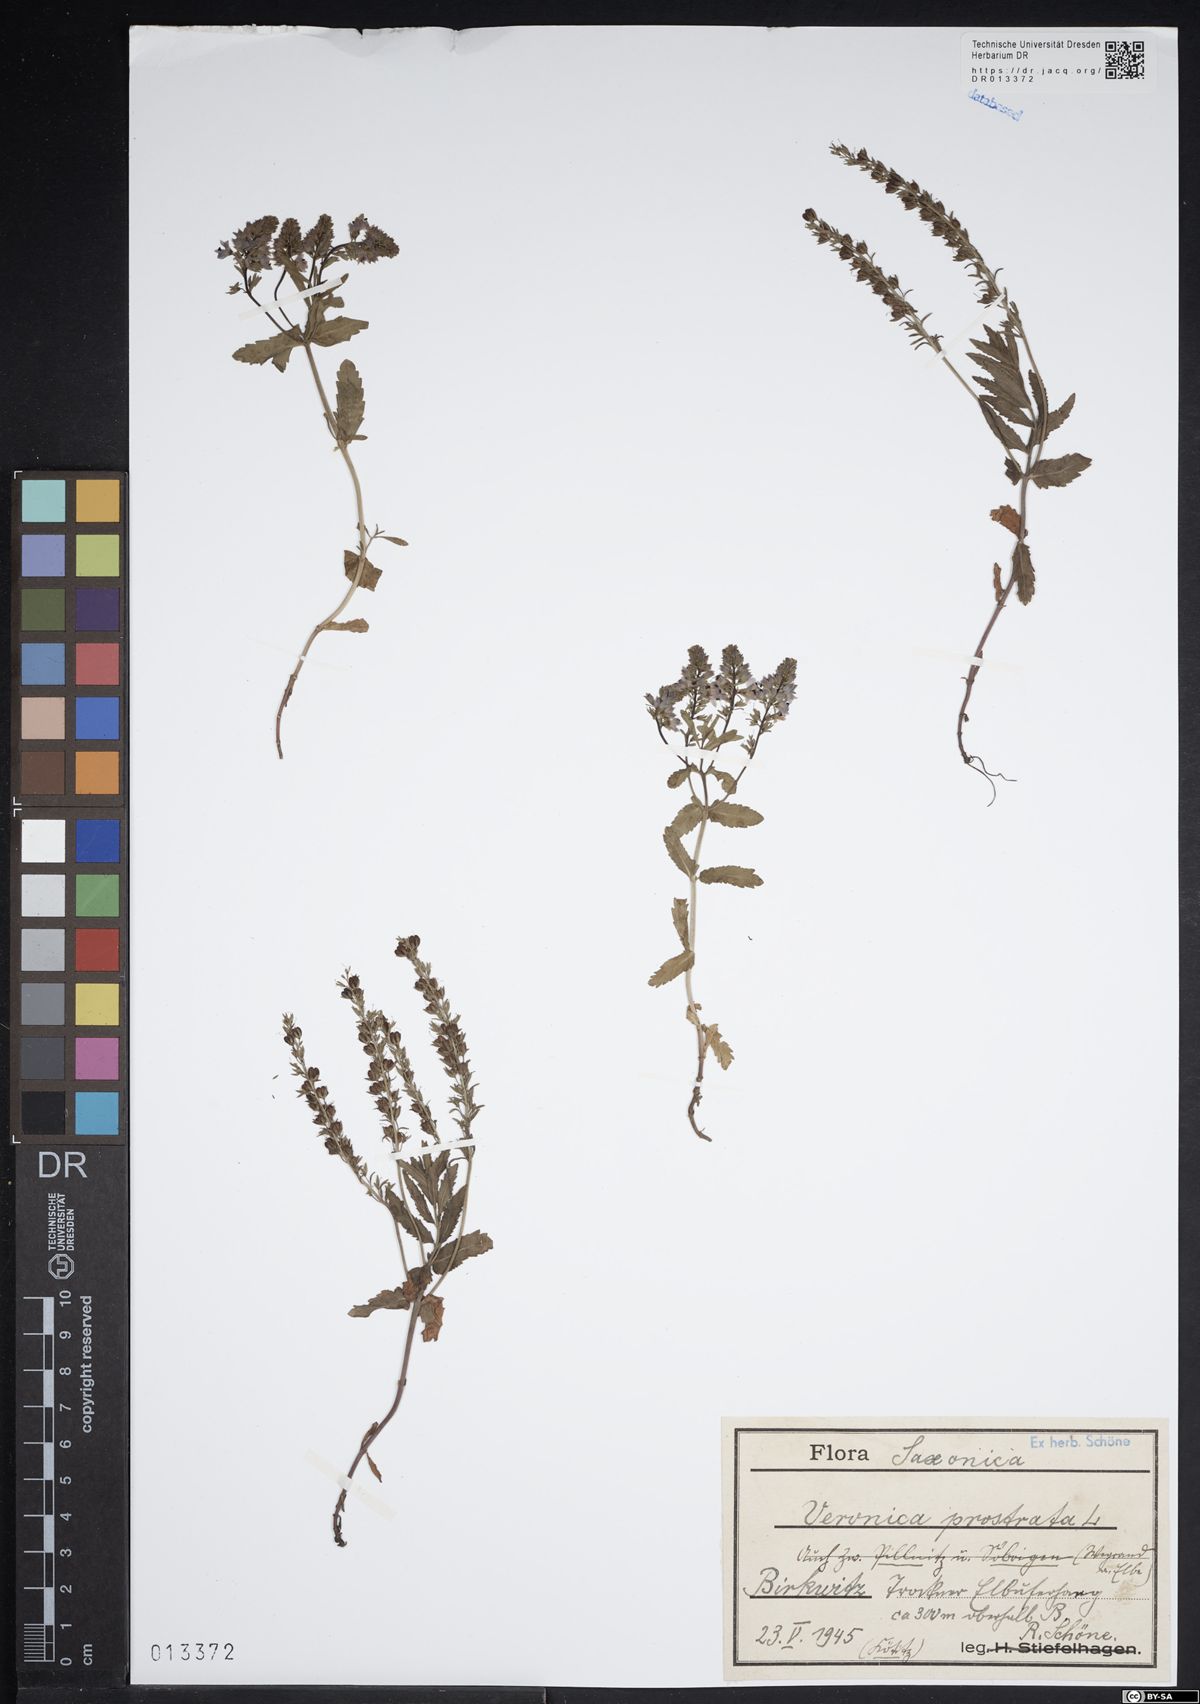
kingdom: Plantae
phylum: Tracheophyta
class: Magnoliopsida
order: Lamiales
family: Plantaginaceae
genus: Veronica
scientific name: Veronica prostrata
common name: Prostrate speedwell
